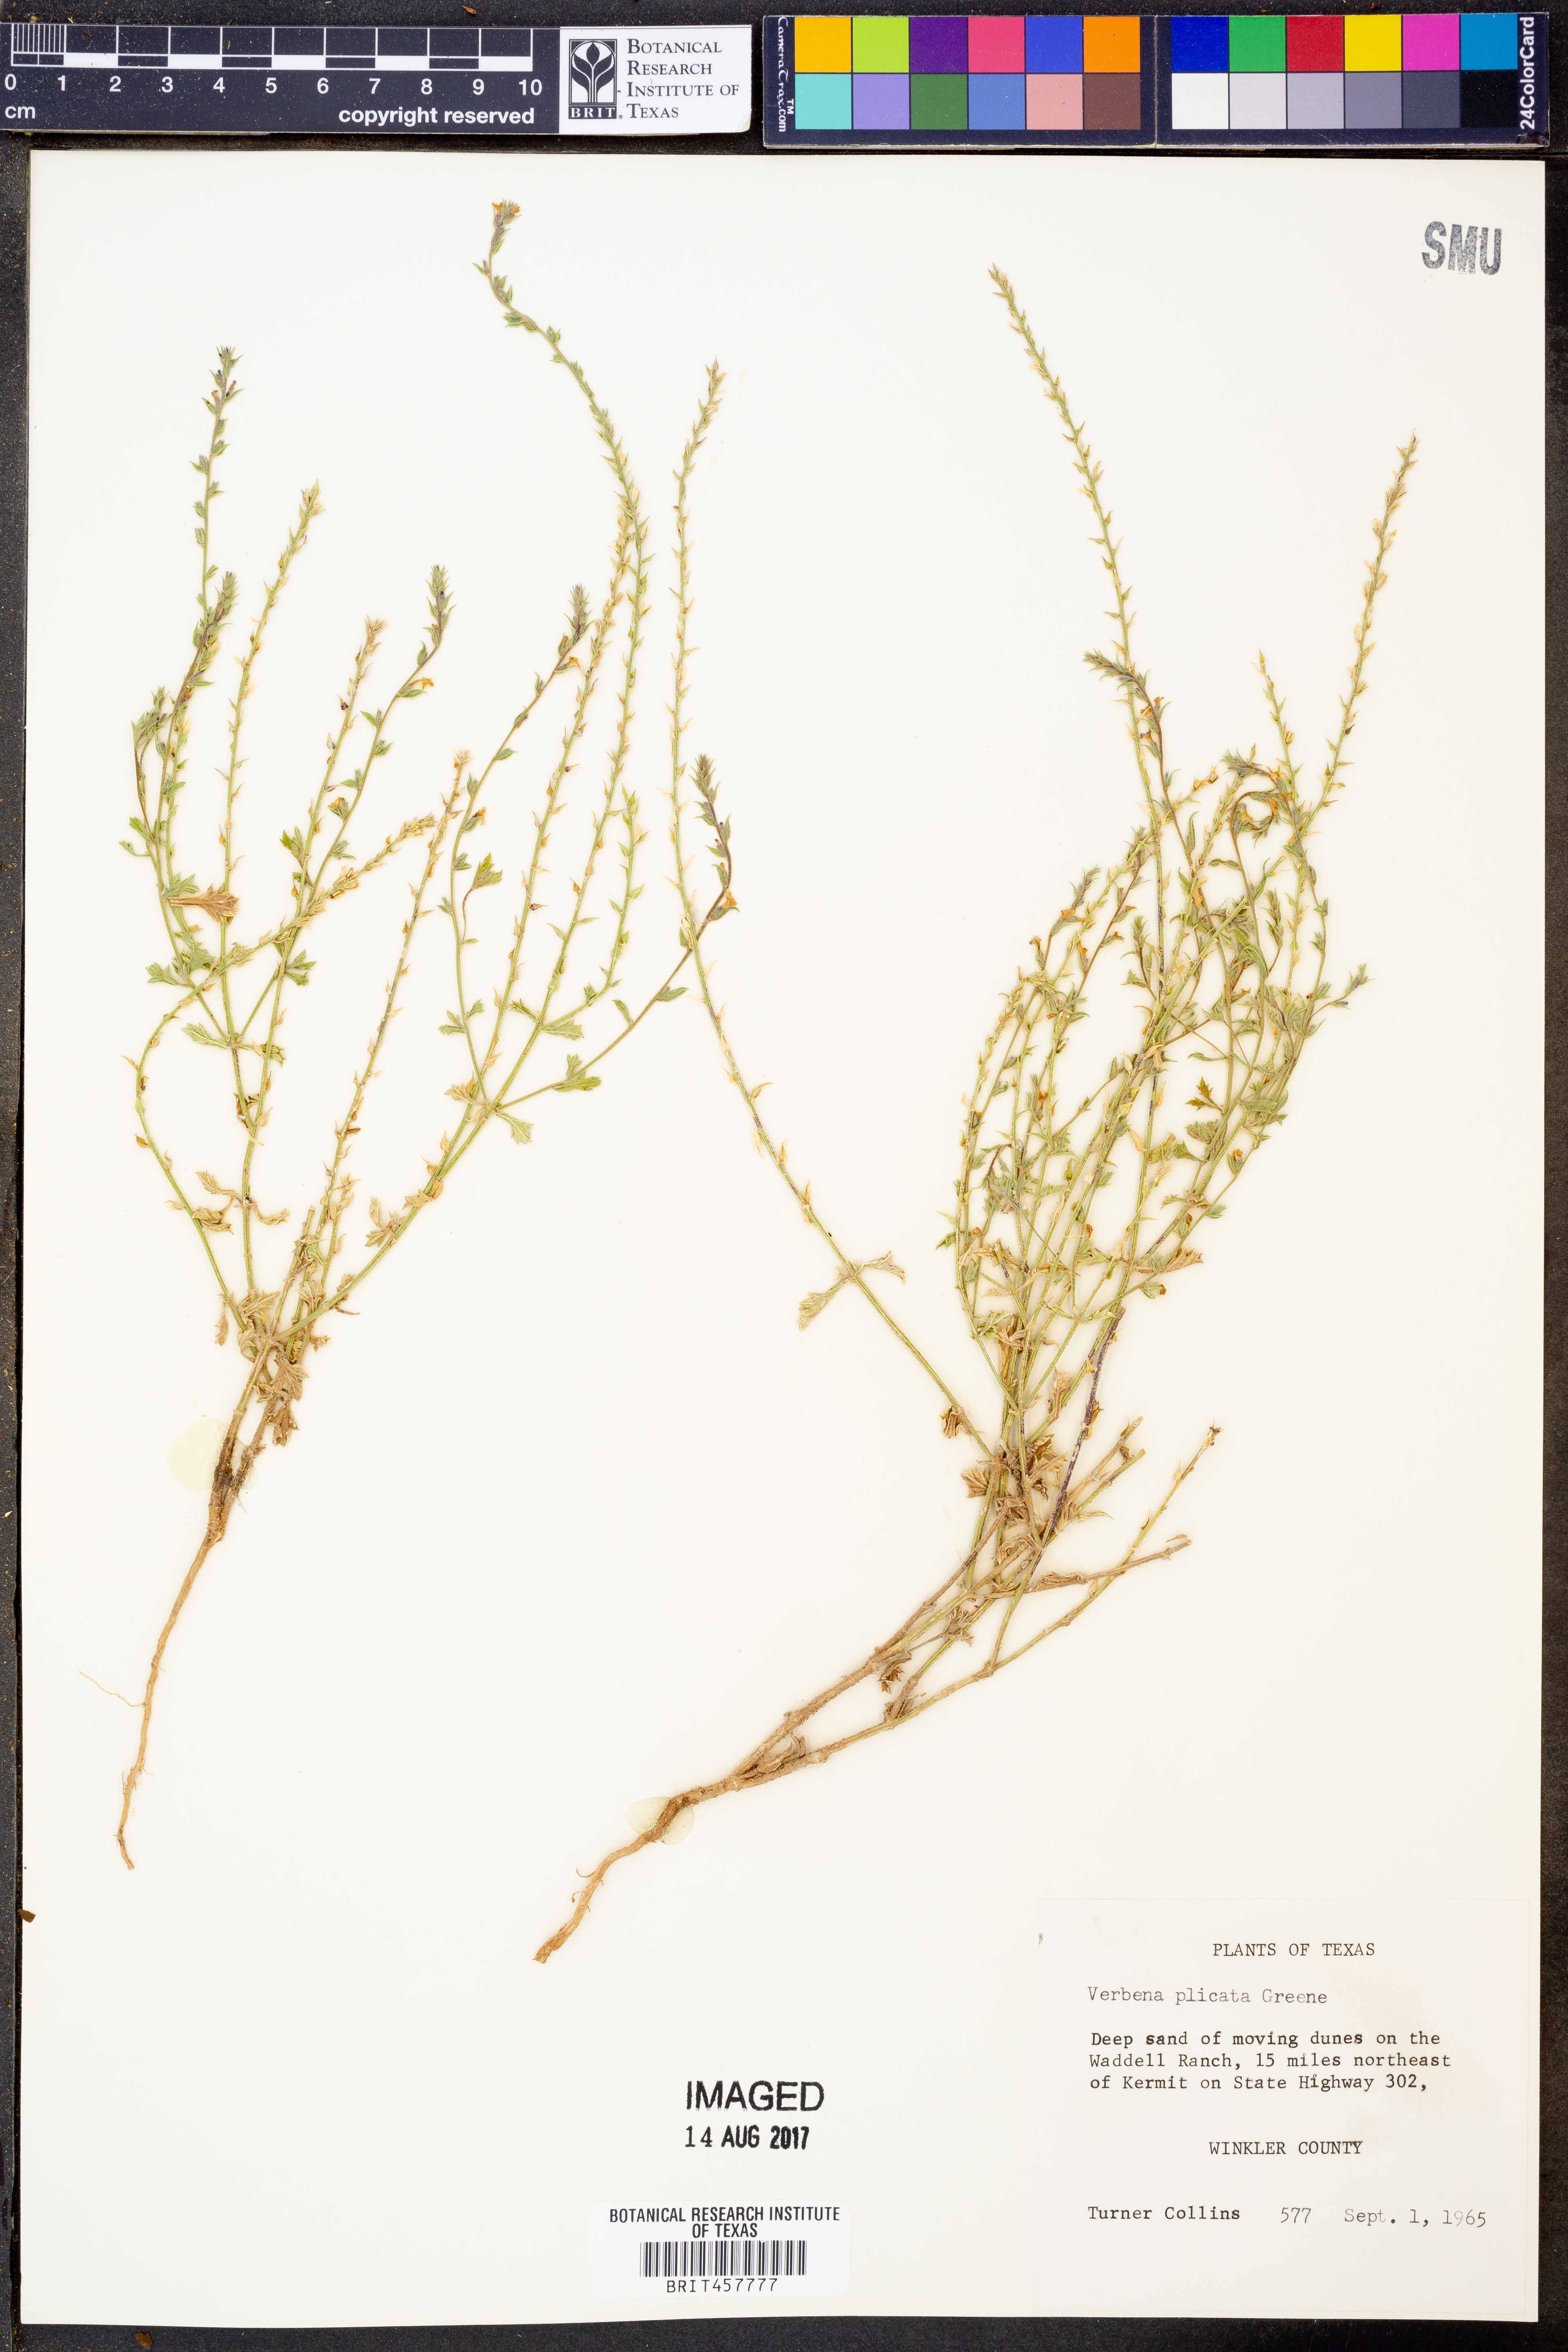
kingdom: Plantae
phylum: Tracheophyta
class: Magnoliopsida
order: Lamiales
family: Verbenaceae
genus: Verbena
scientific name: Verbena plicata
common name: Fan-leaf vervain
